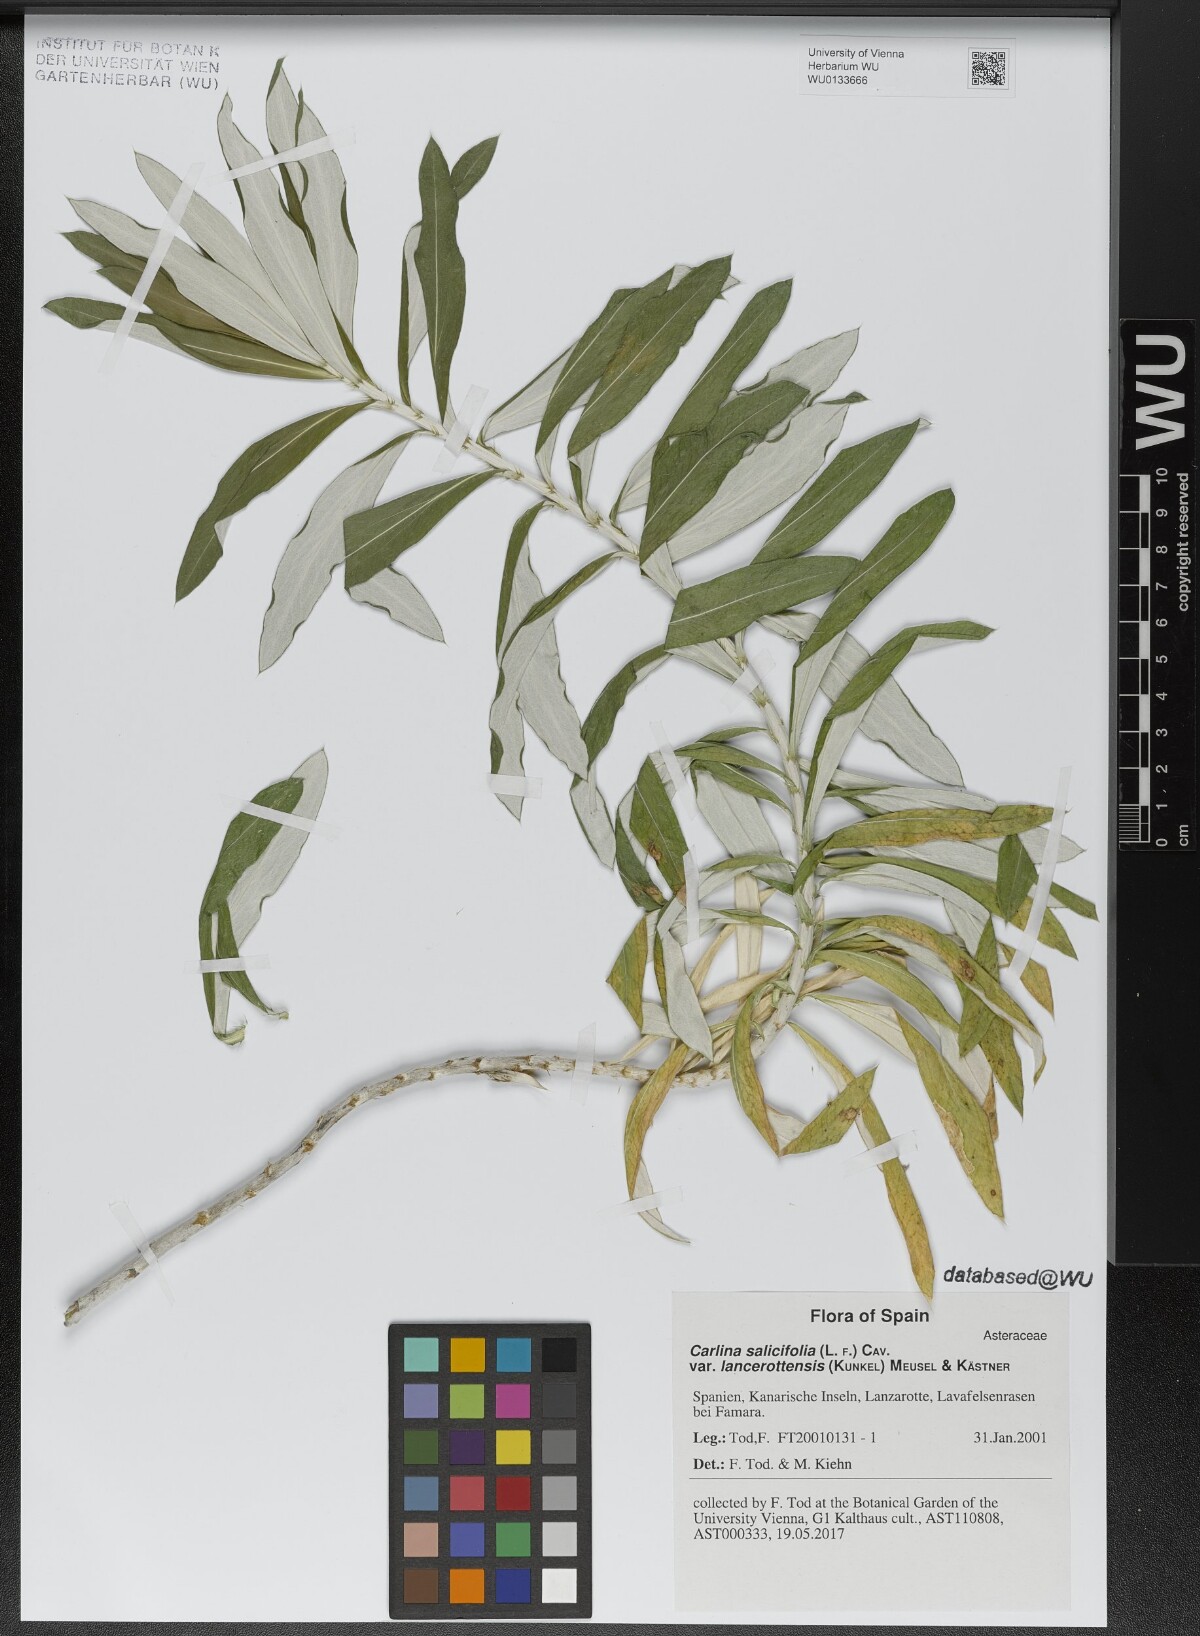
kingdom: Plantae
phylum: Tracheophyta
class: Magnoliopsida
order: Asterales
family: Asteraceae
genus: Carlina
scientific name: Carlina salicifolia
